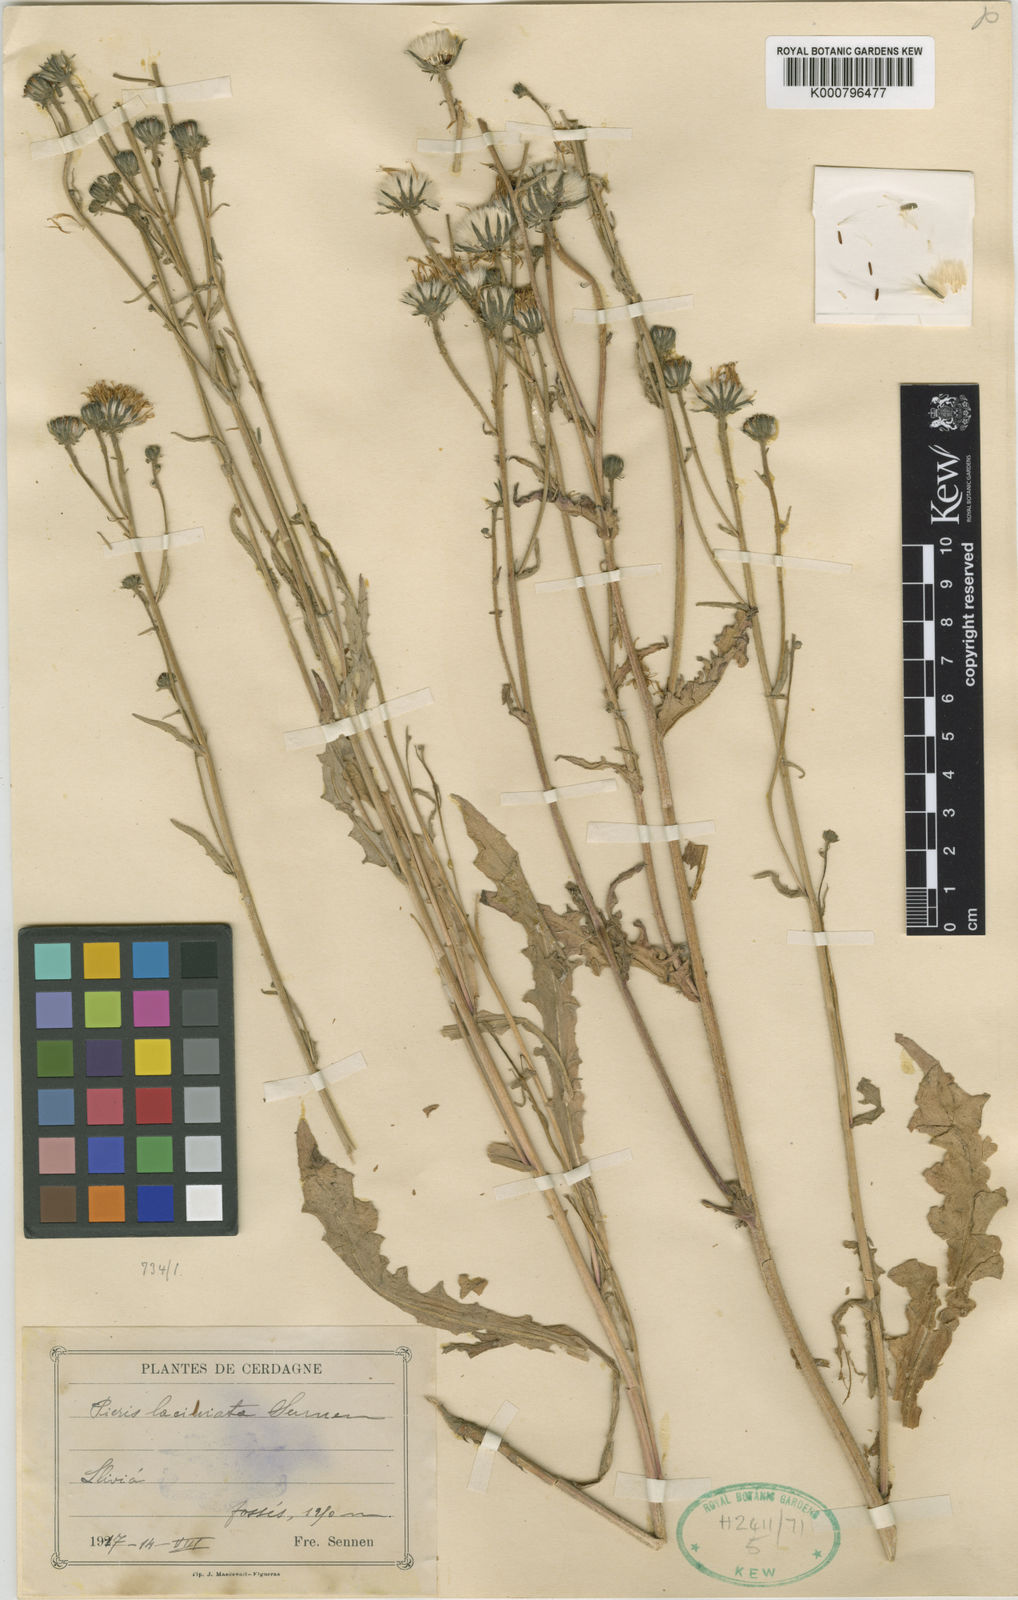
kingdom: Plantae
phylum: Tracheophyta
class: Magnoliopsida
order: Asterales
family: Asteraceae
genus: Picris
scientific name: Picris hieracioides
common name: Hawkweed oxtongue
